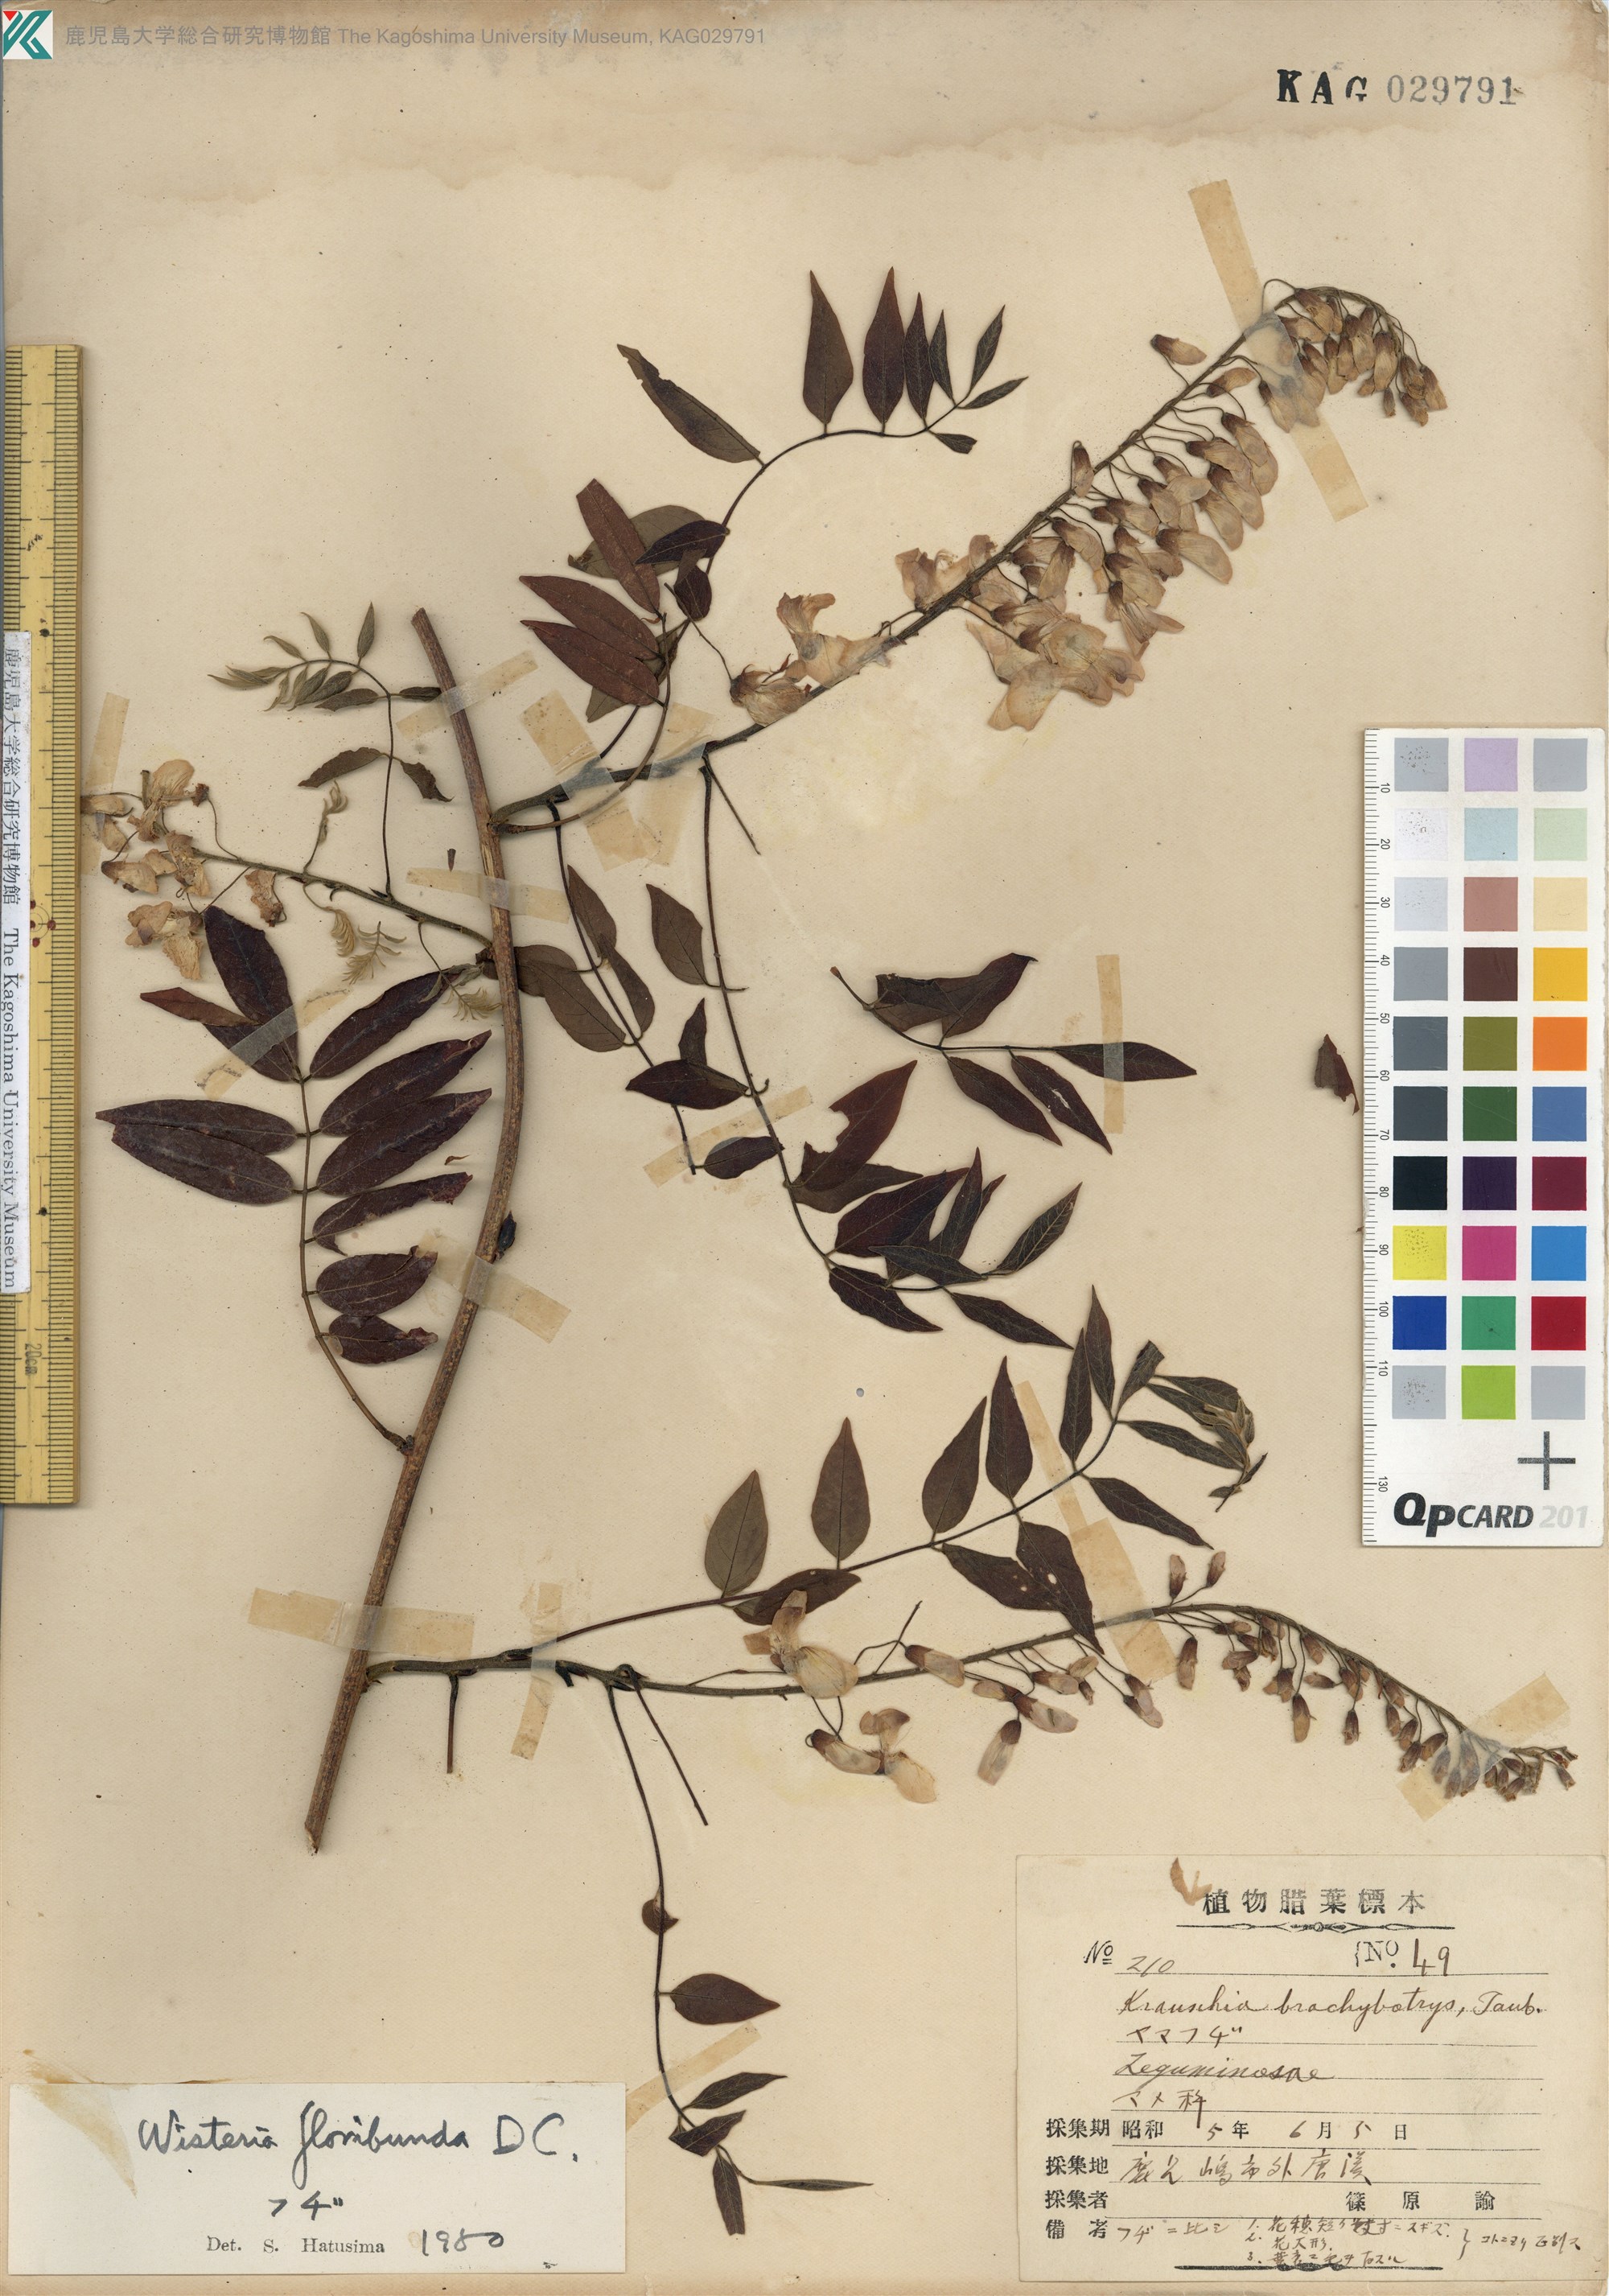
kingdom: Plantae
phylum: Tracheophyta
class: Magnoliopsida
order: Fabales
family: Fabaceae
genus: Wisteria
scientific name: Wisteria floribunda
